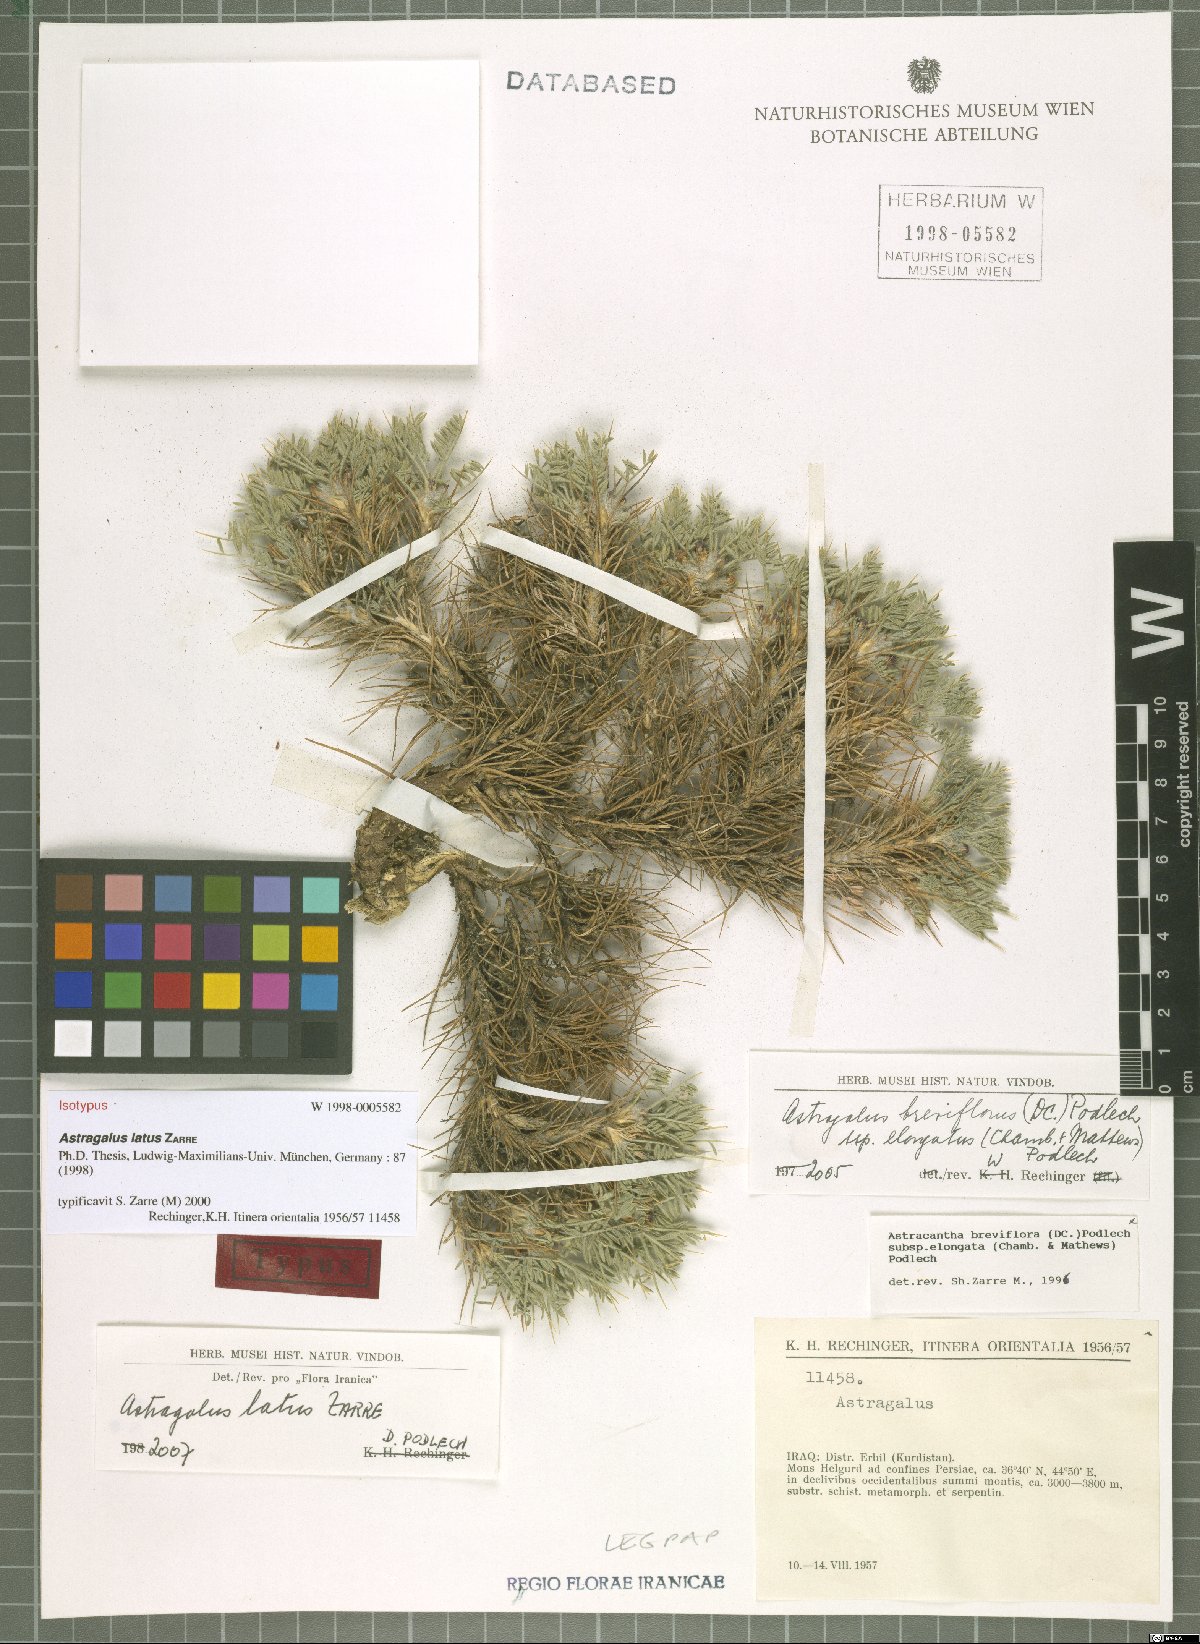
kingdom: Plantae
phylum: Tracheophyta
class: Magnoliopsida
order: Fabales
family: Fabaceae
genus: Astragalus
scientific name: Astragalus latusioides
